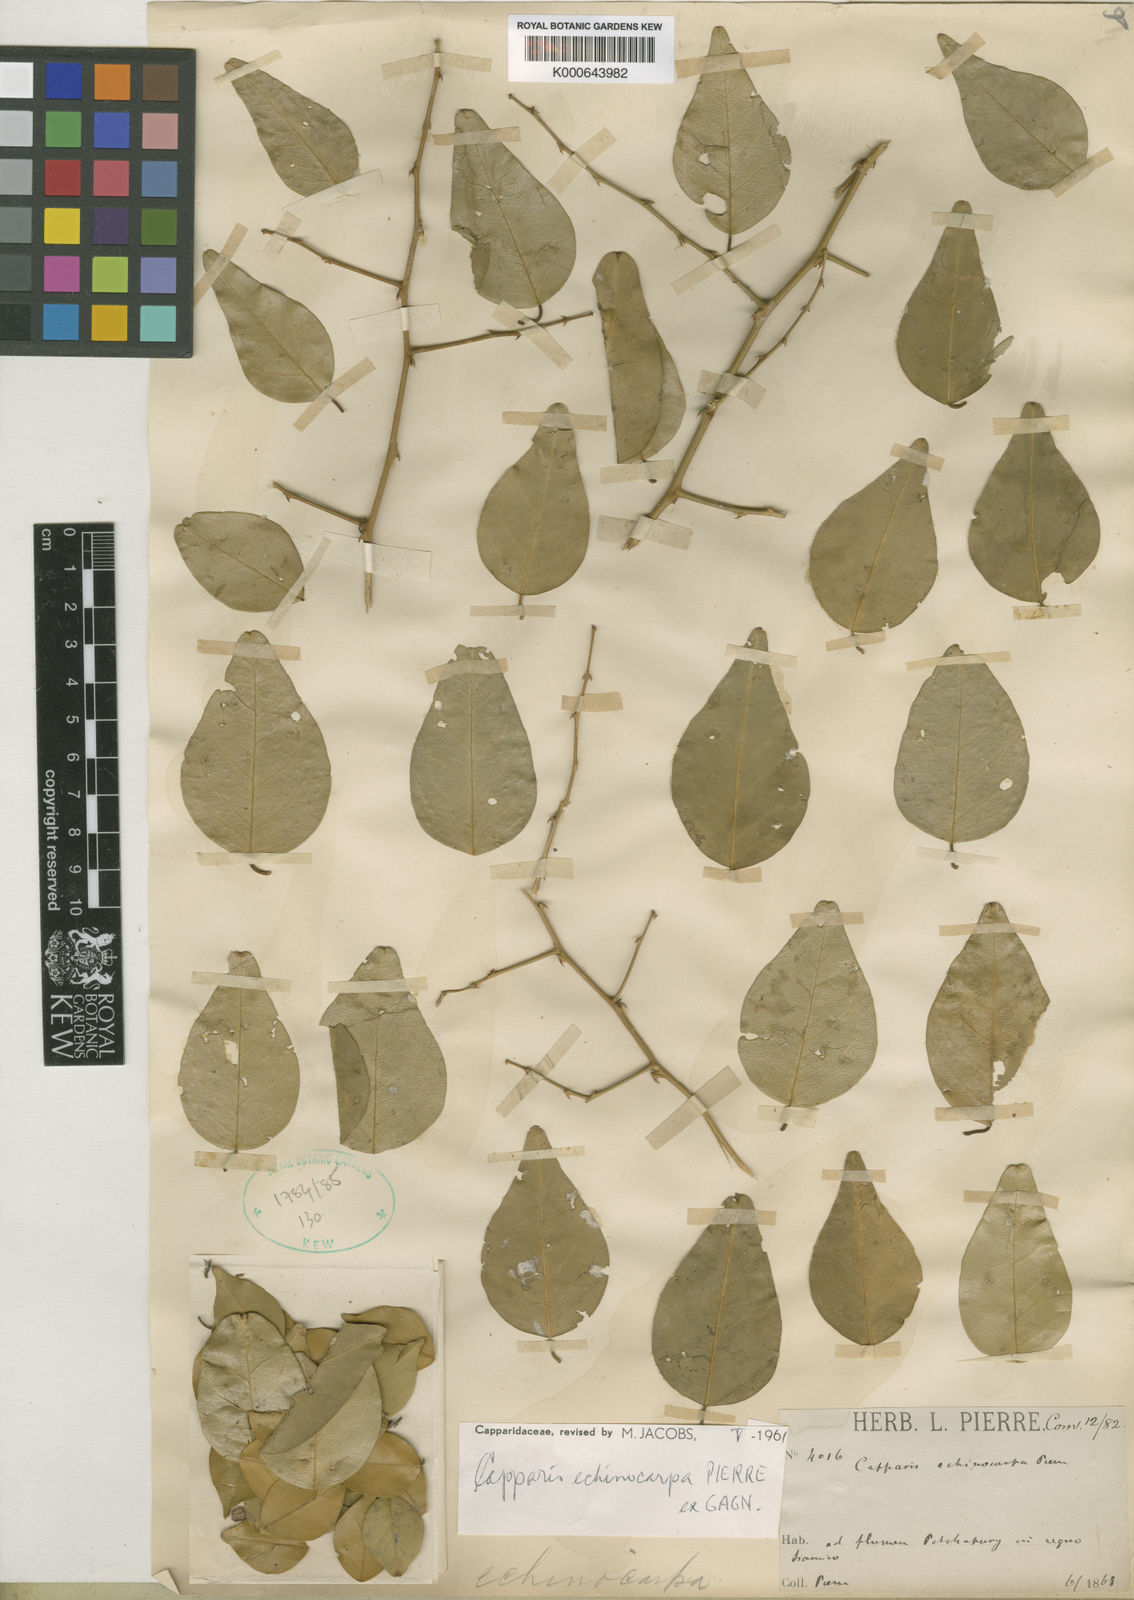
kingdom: Plantae
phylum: Tracheophyta
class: Magnoliopsida
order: Brassicales
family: Capparaceae
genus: Capparis
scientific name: Capparis echinocarpa
